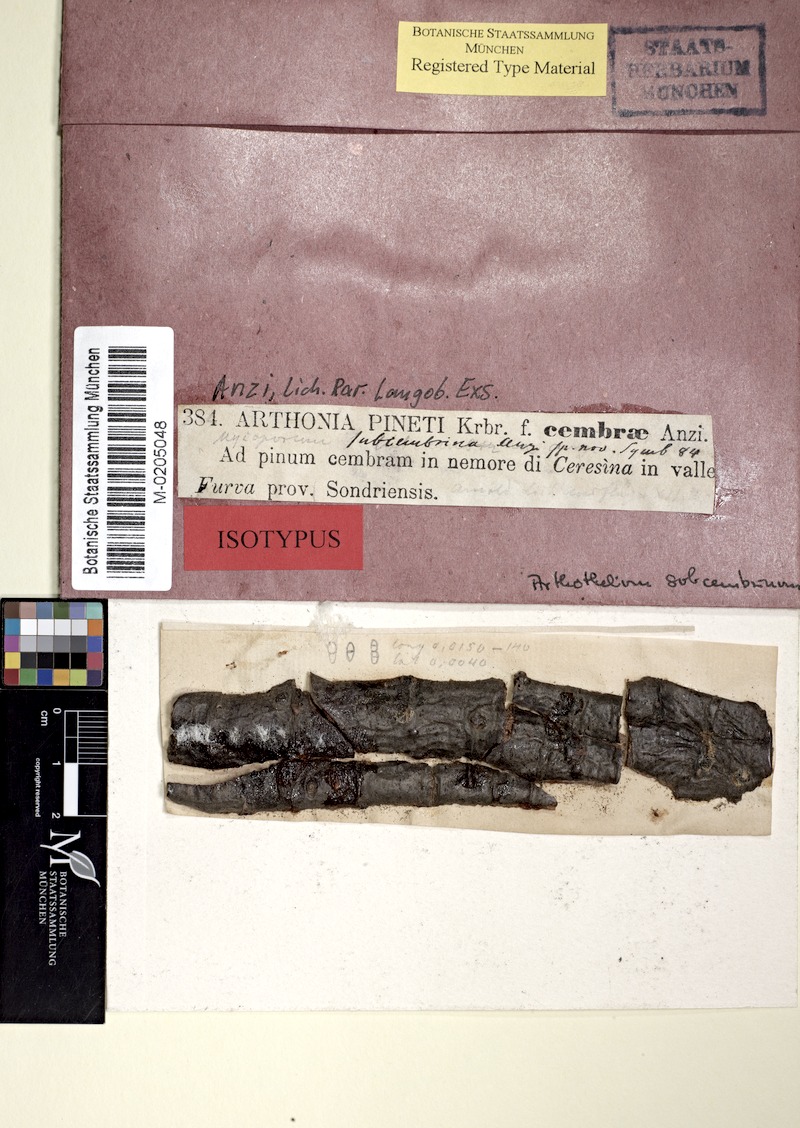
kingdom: Fungi
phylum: Ascomycota
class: Dothideomycetes
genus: Cyrtidula
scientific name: Cyrtidula subcembrina
